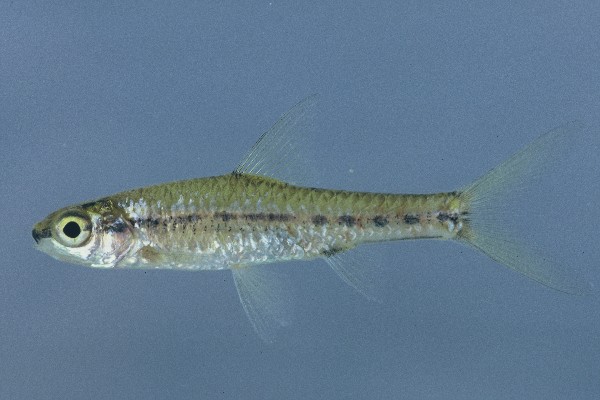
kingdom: Animalia
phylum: Chordata
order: Cypriniformes
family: Cyprinidae
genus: Enteromius
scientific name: Enteromius barnardi
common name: Blackback barb
